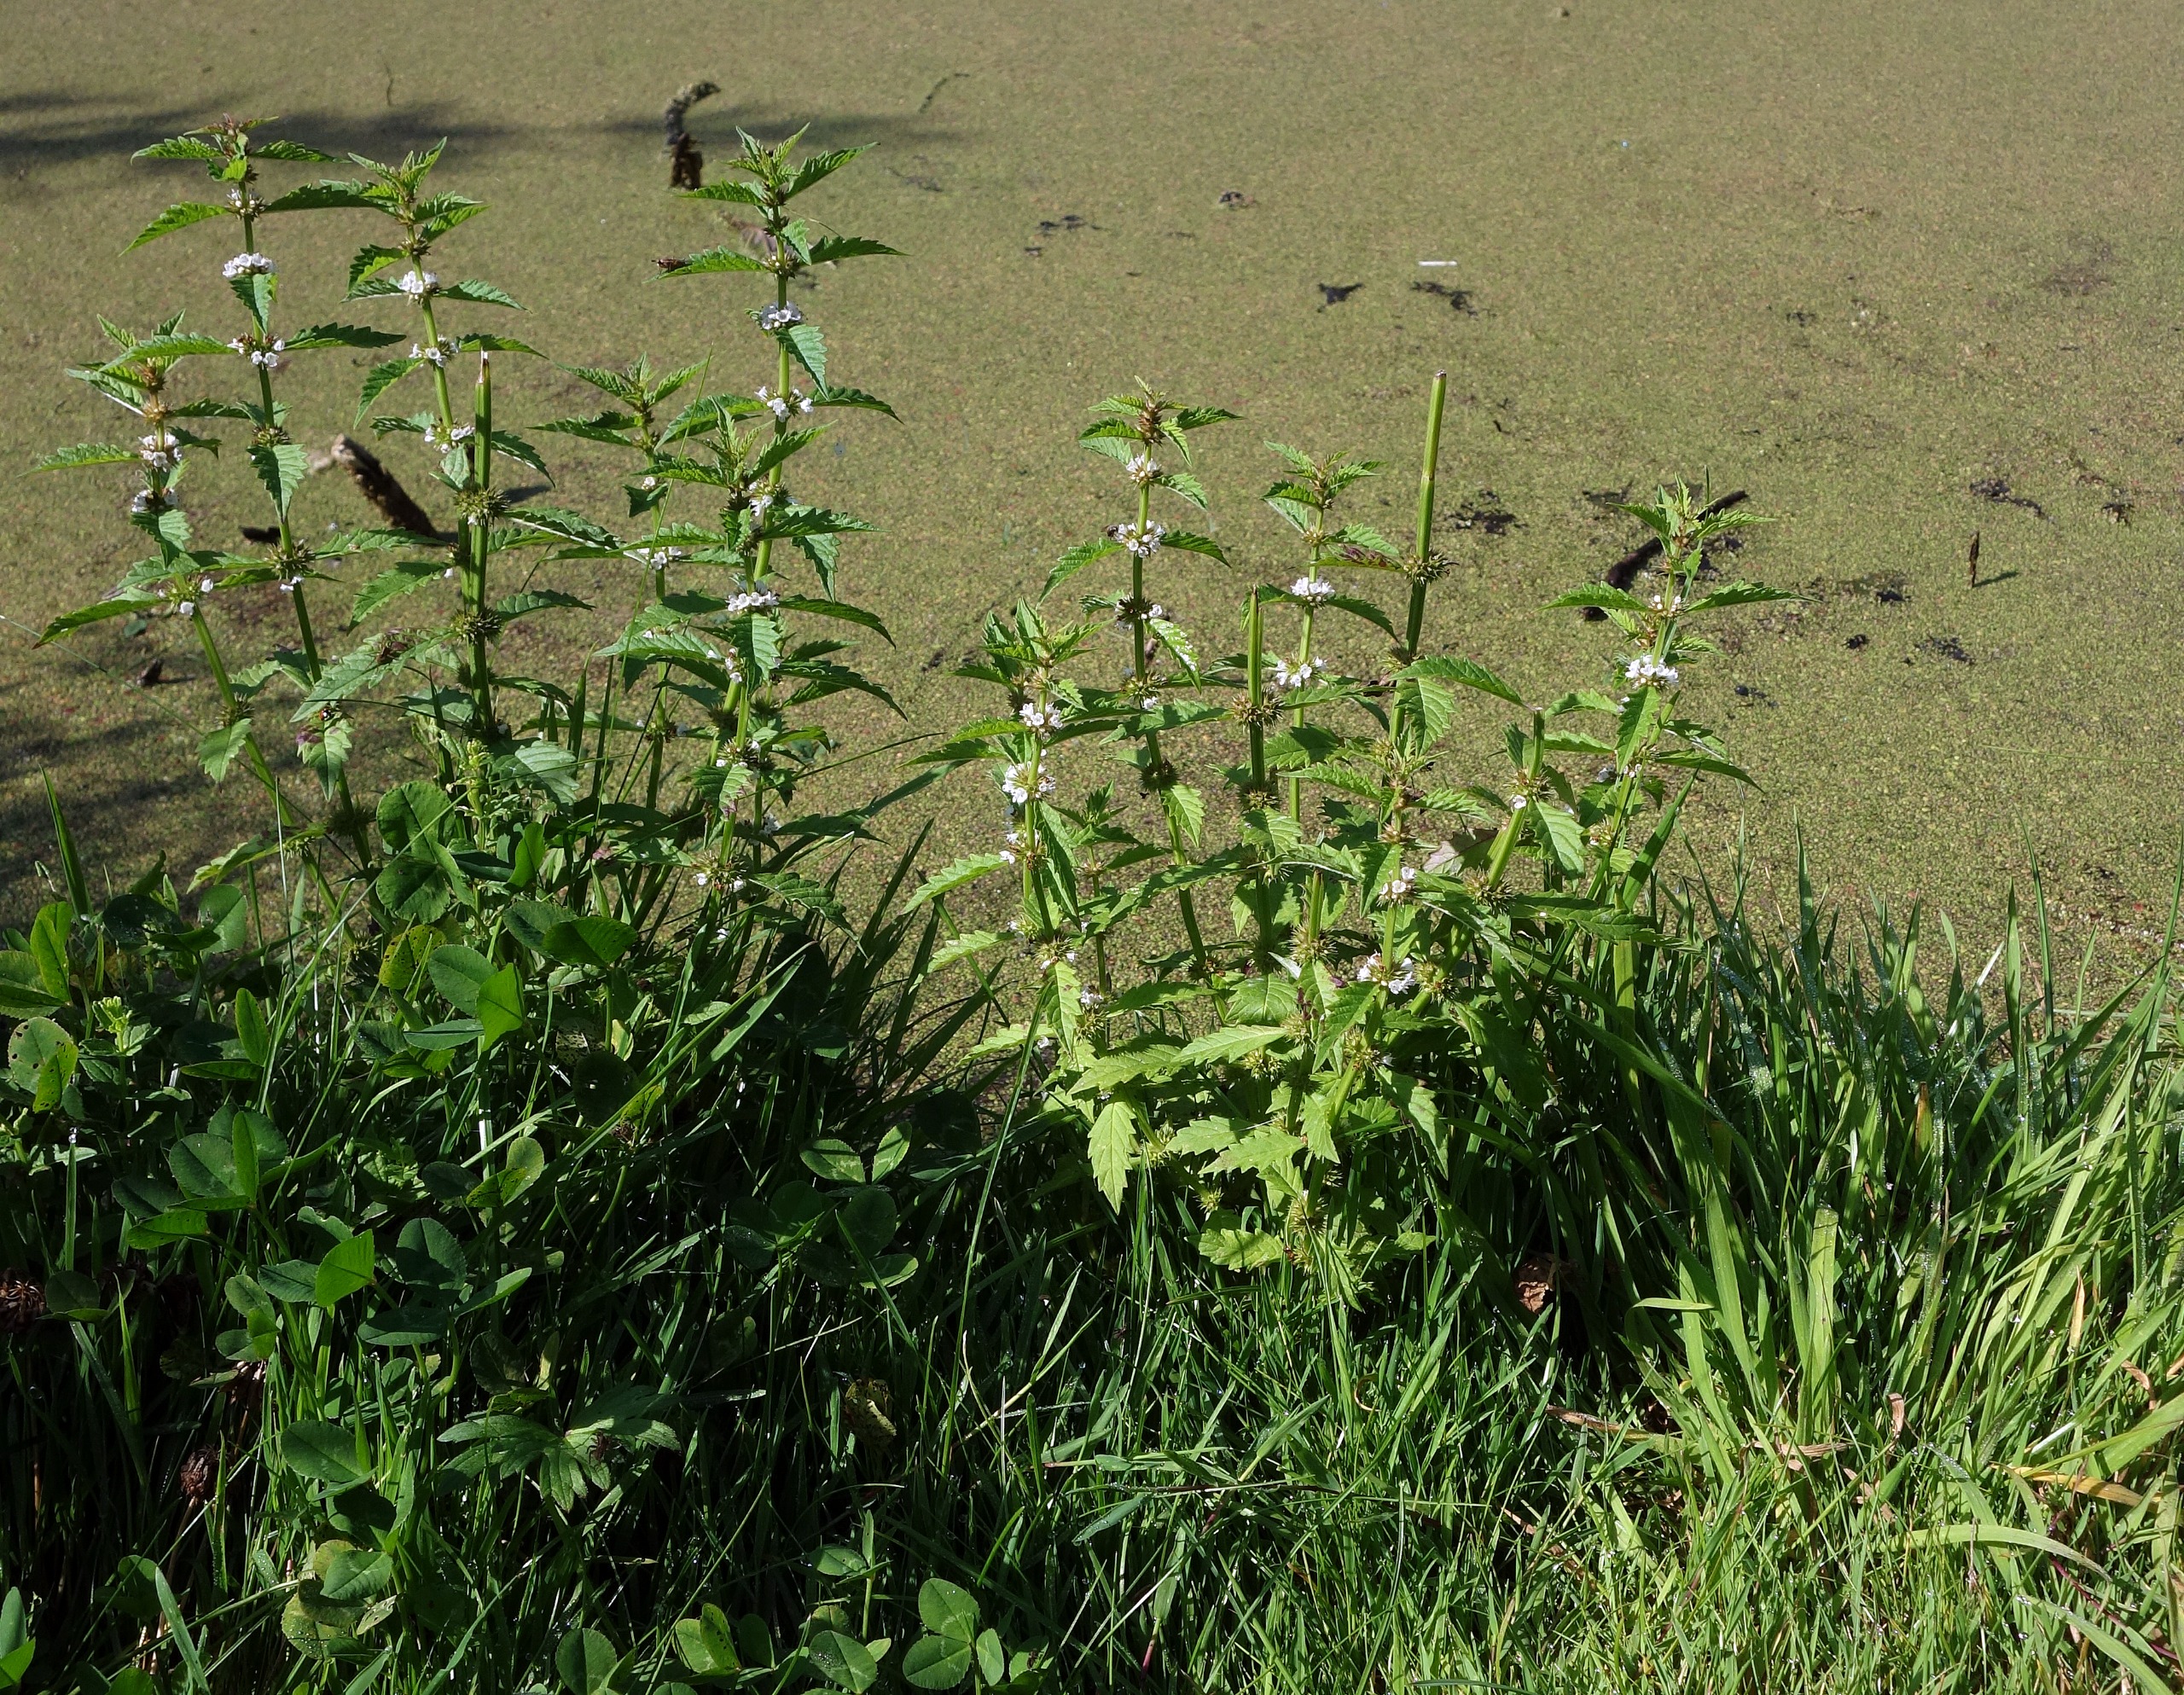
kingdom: Plantae
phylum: Tracheophyta
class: Magnoliopsida
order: Lamiales
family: Lamiaceae
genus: Lycopus
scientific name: Lycopus europaeus
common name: Sværtevæld
